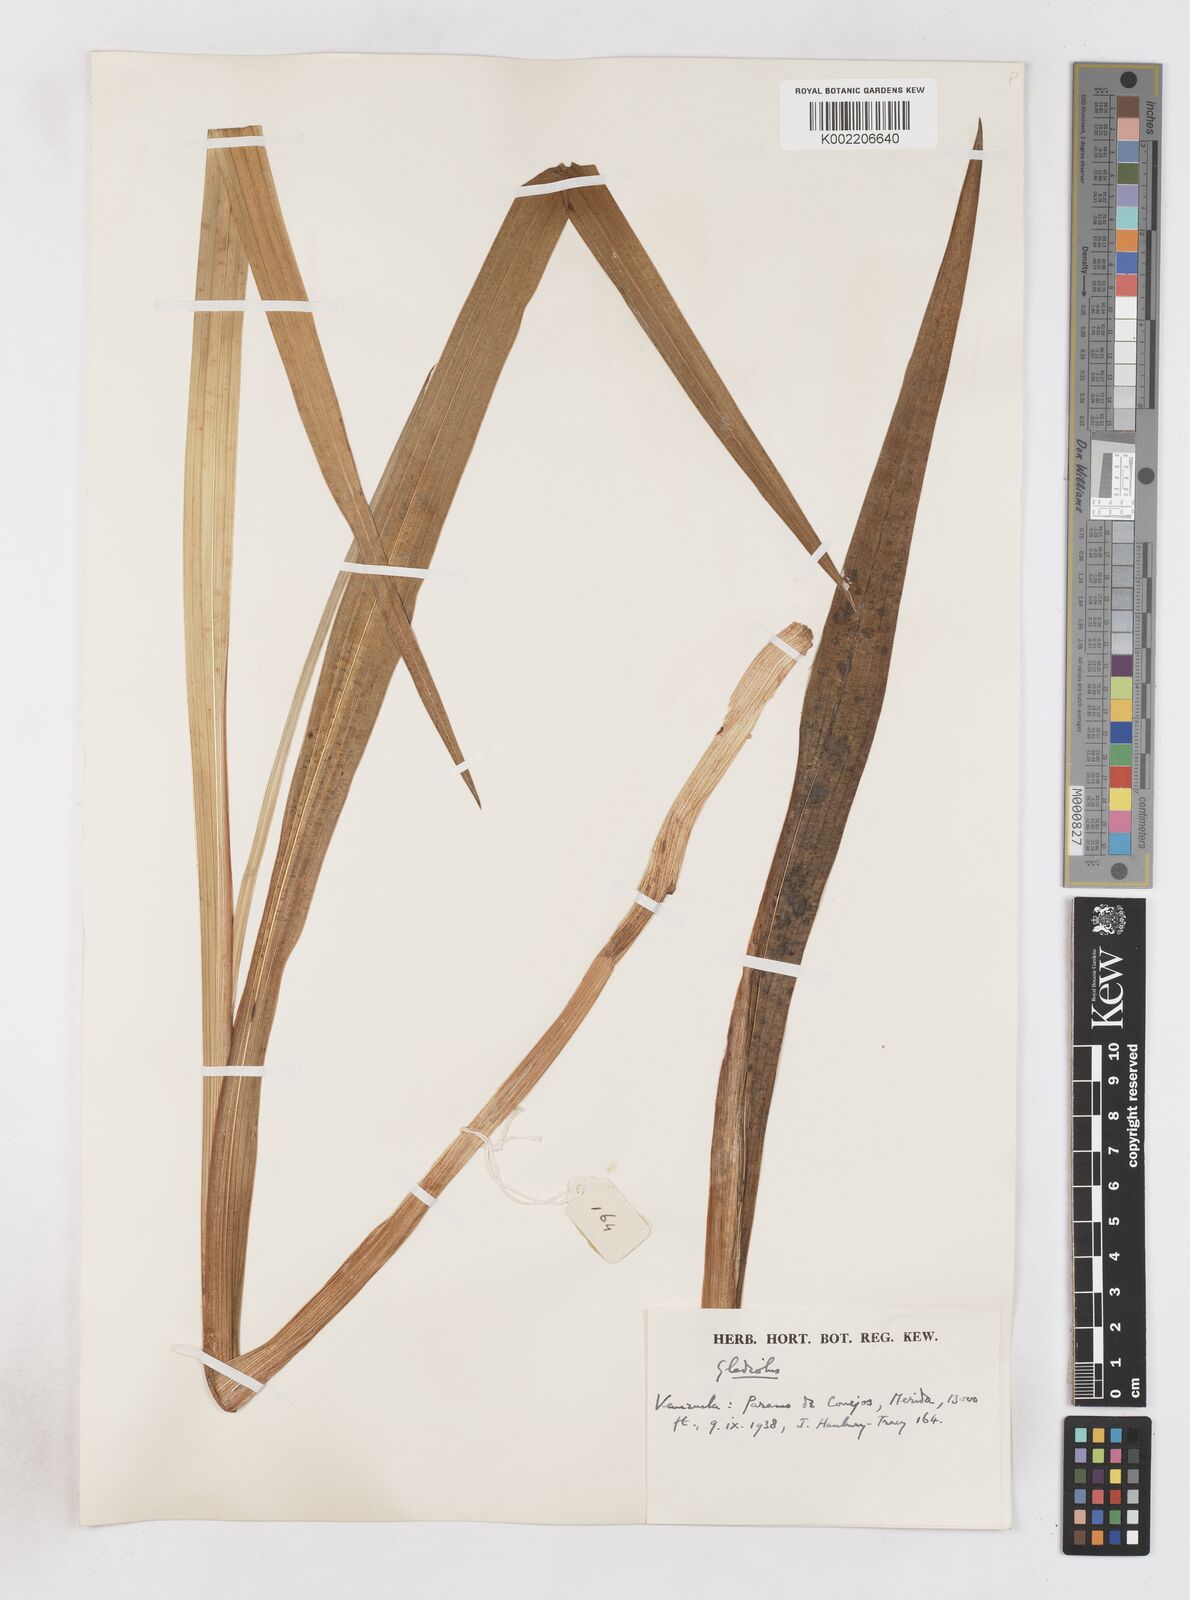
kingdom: Plantae
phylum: Tracheophyta
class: Liliopsida
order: Asparagales
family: Iridaceae
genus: Gladiolus
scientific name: Gladiolus
